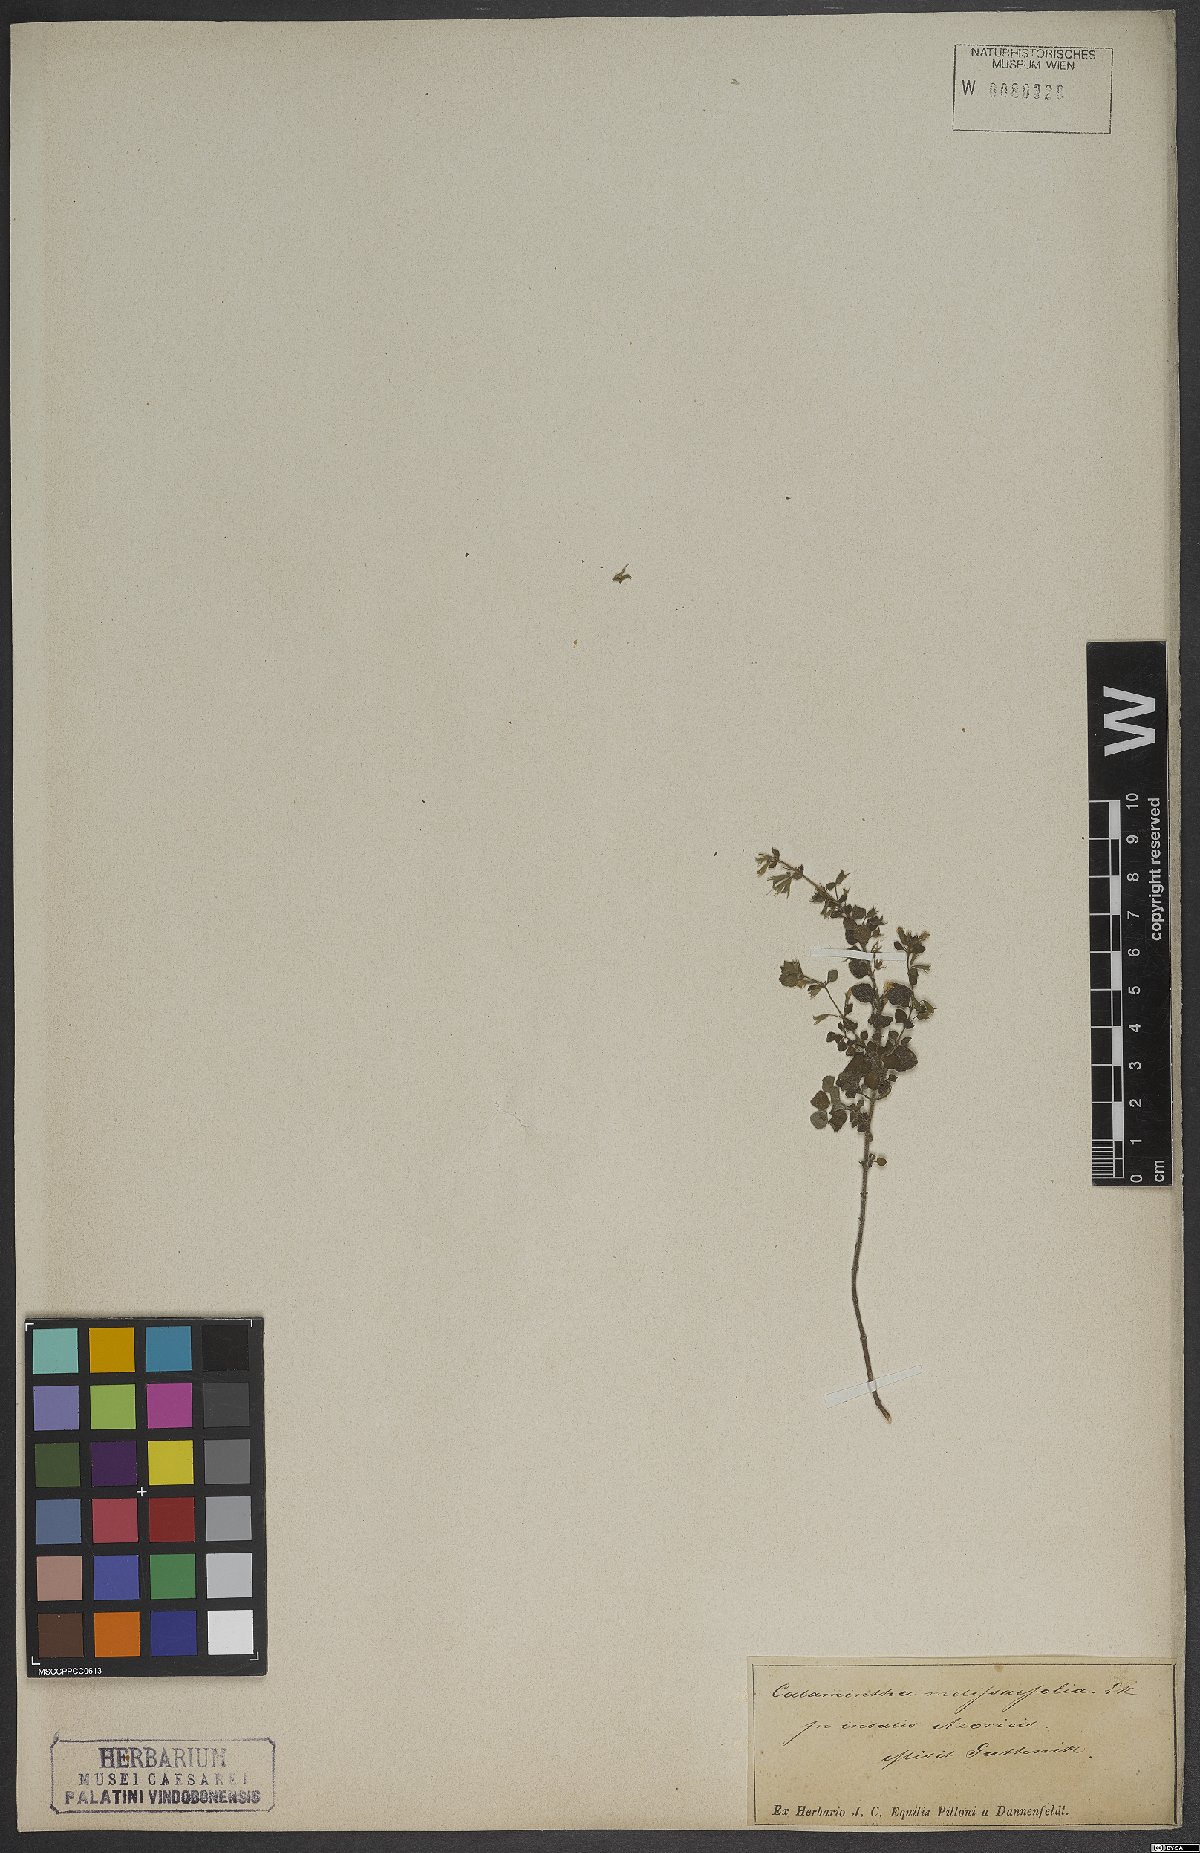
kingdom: Plantae
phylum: Tracheophyta
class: Magnoliopsida
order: Lamiales
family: Lamiaceae
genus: Clinopodium
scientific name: Clinopodium heterotrichum
